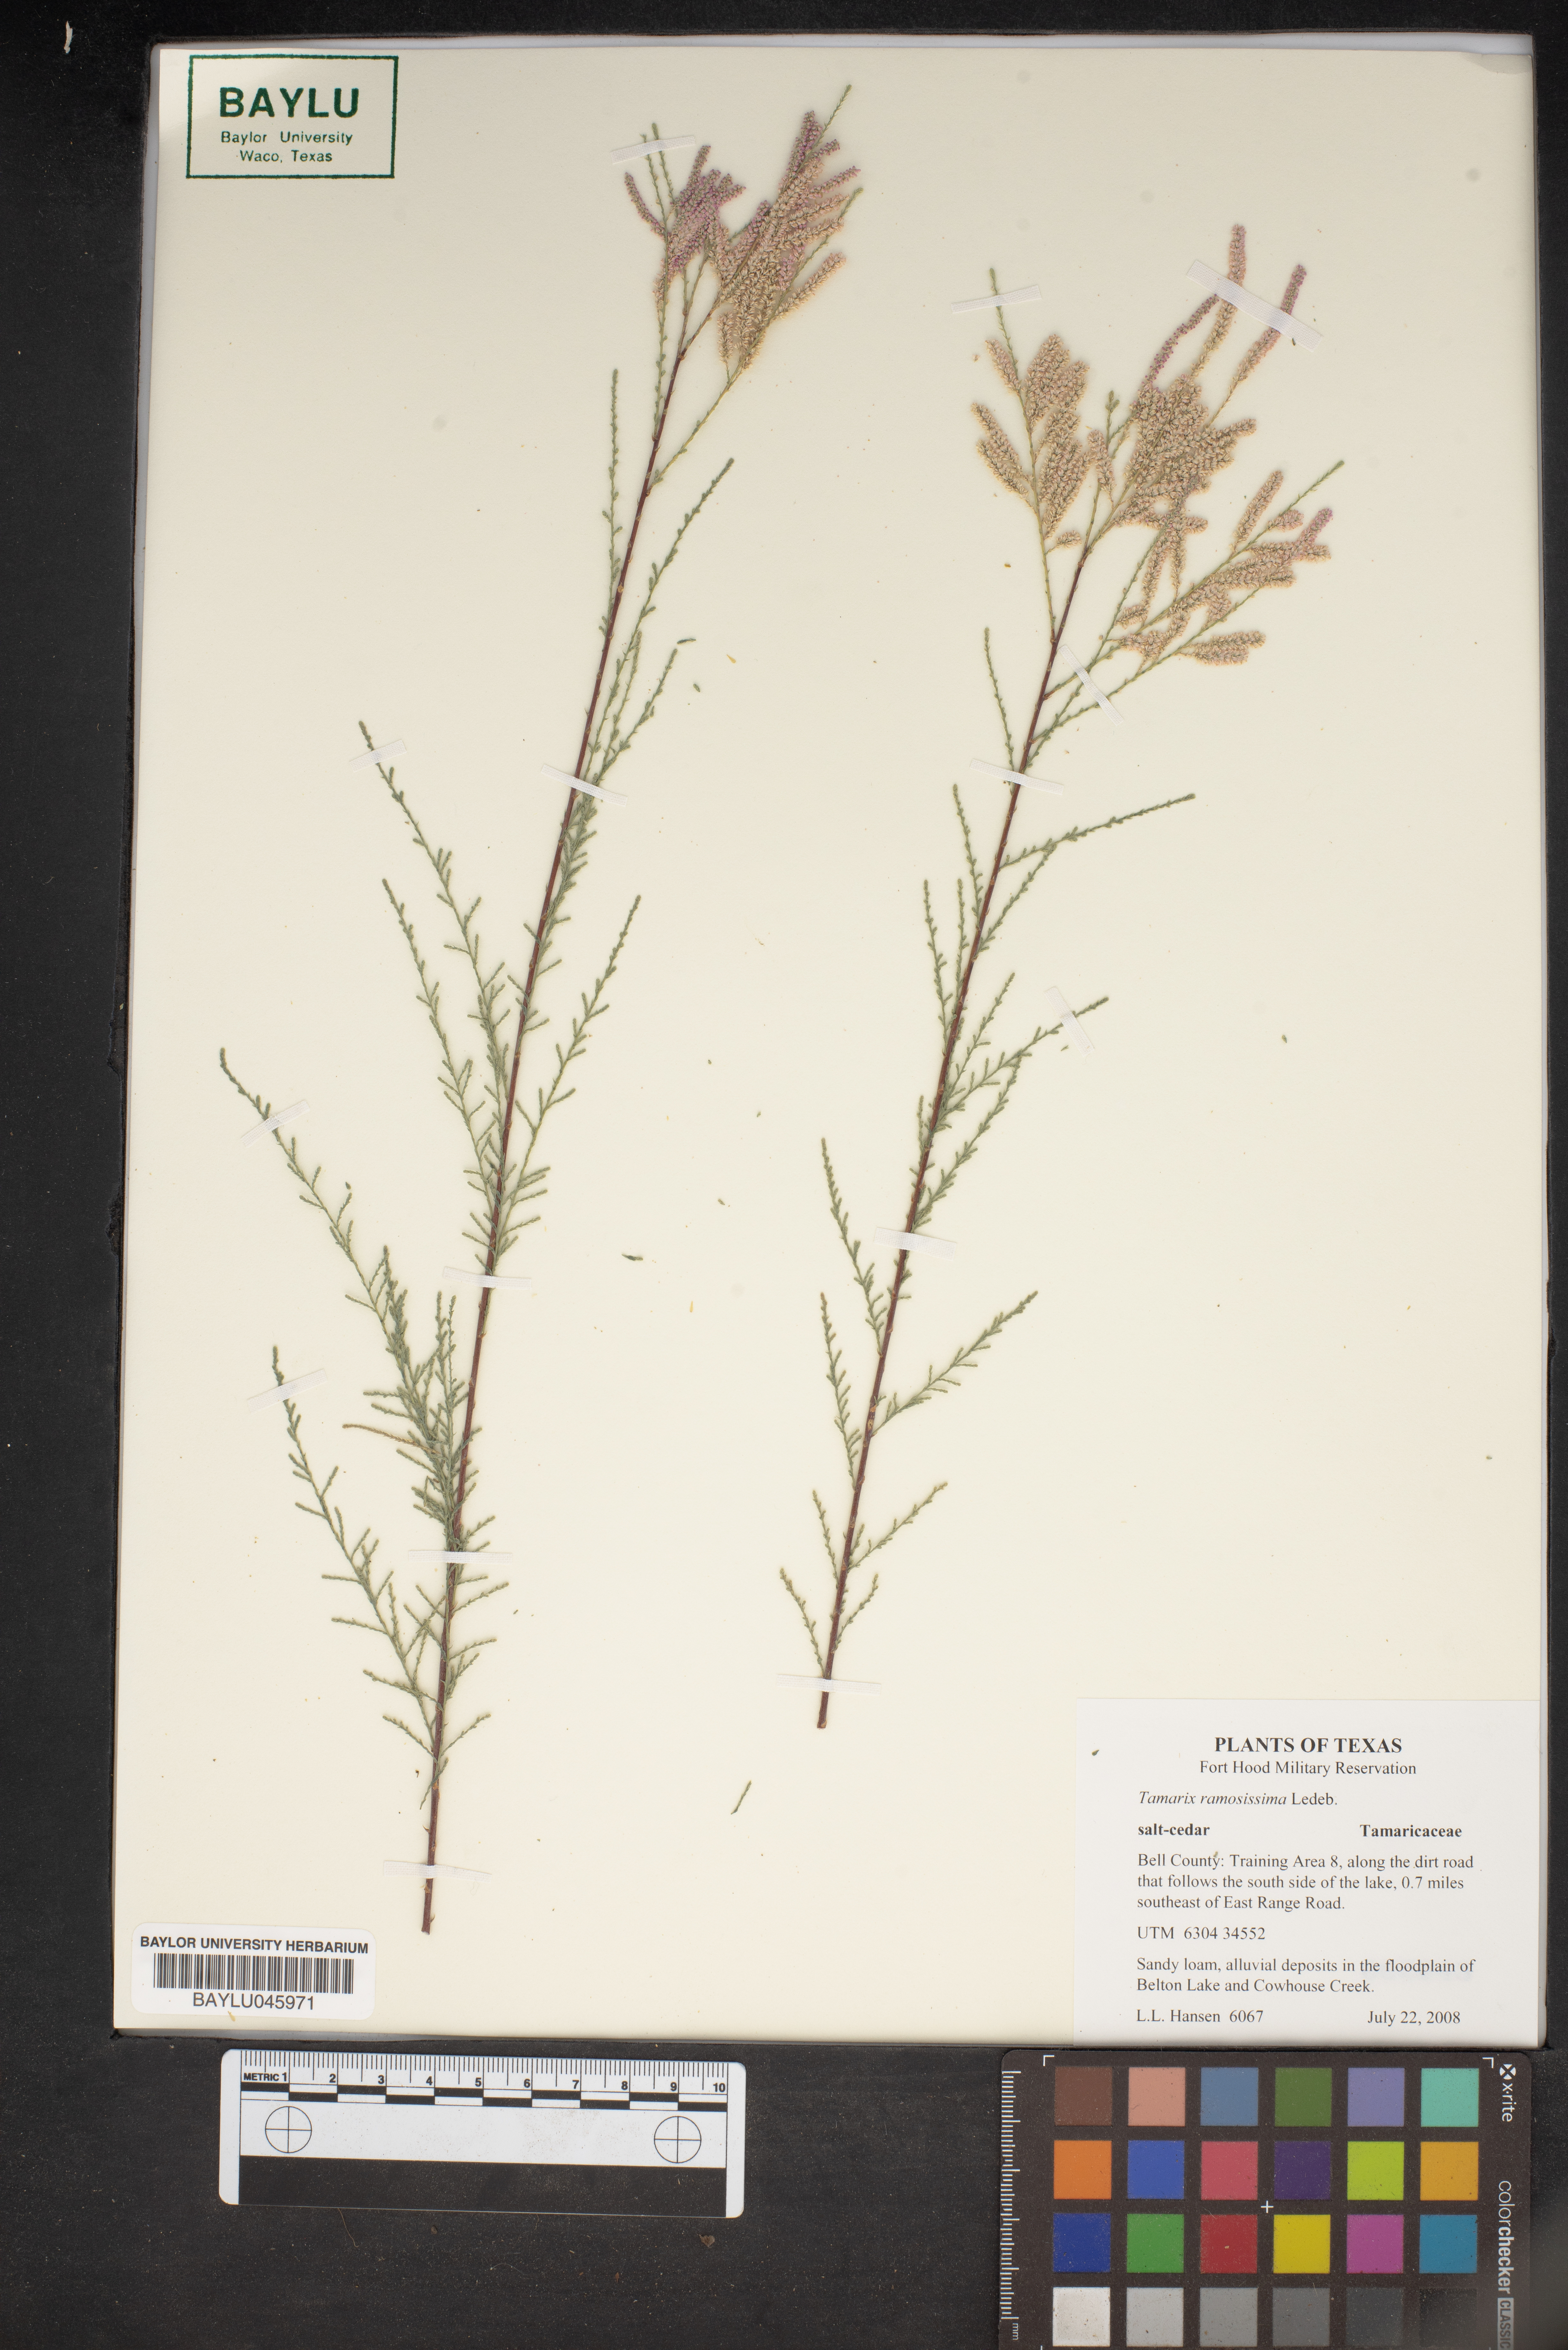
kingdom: Plantae
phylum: Tracheophyta
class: Magnoliopsida
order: Caryophyllales
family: Tamaricaceae
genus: Tamarix
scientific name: Tamarix ramosissima
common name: Pink tamarisk
